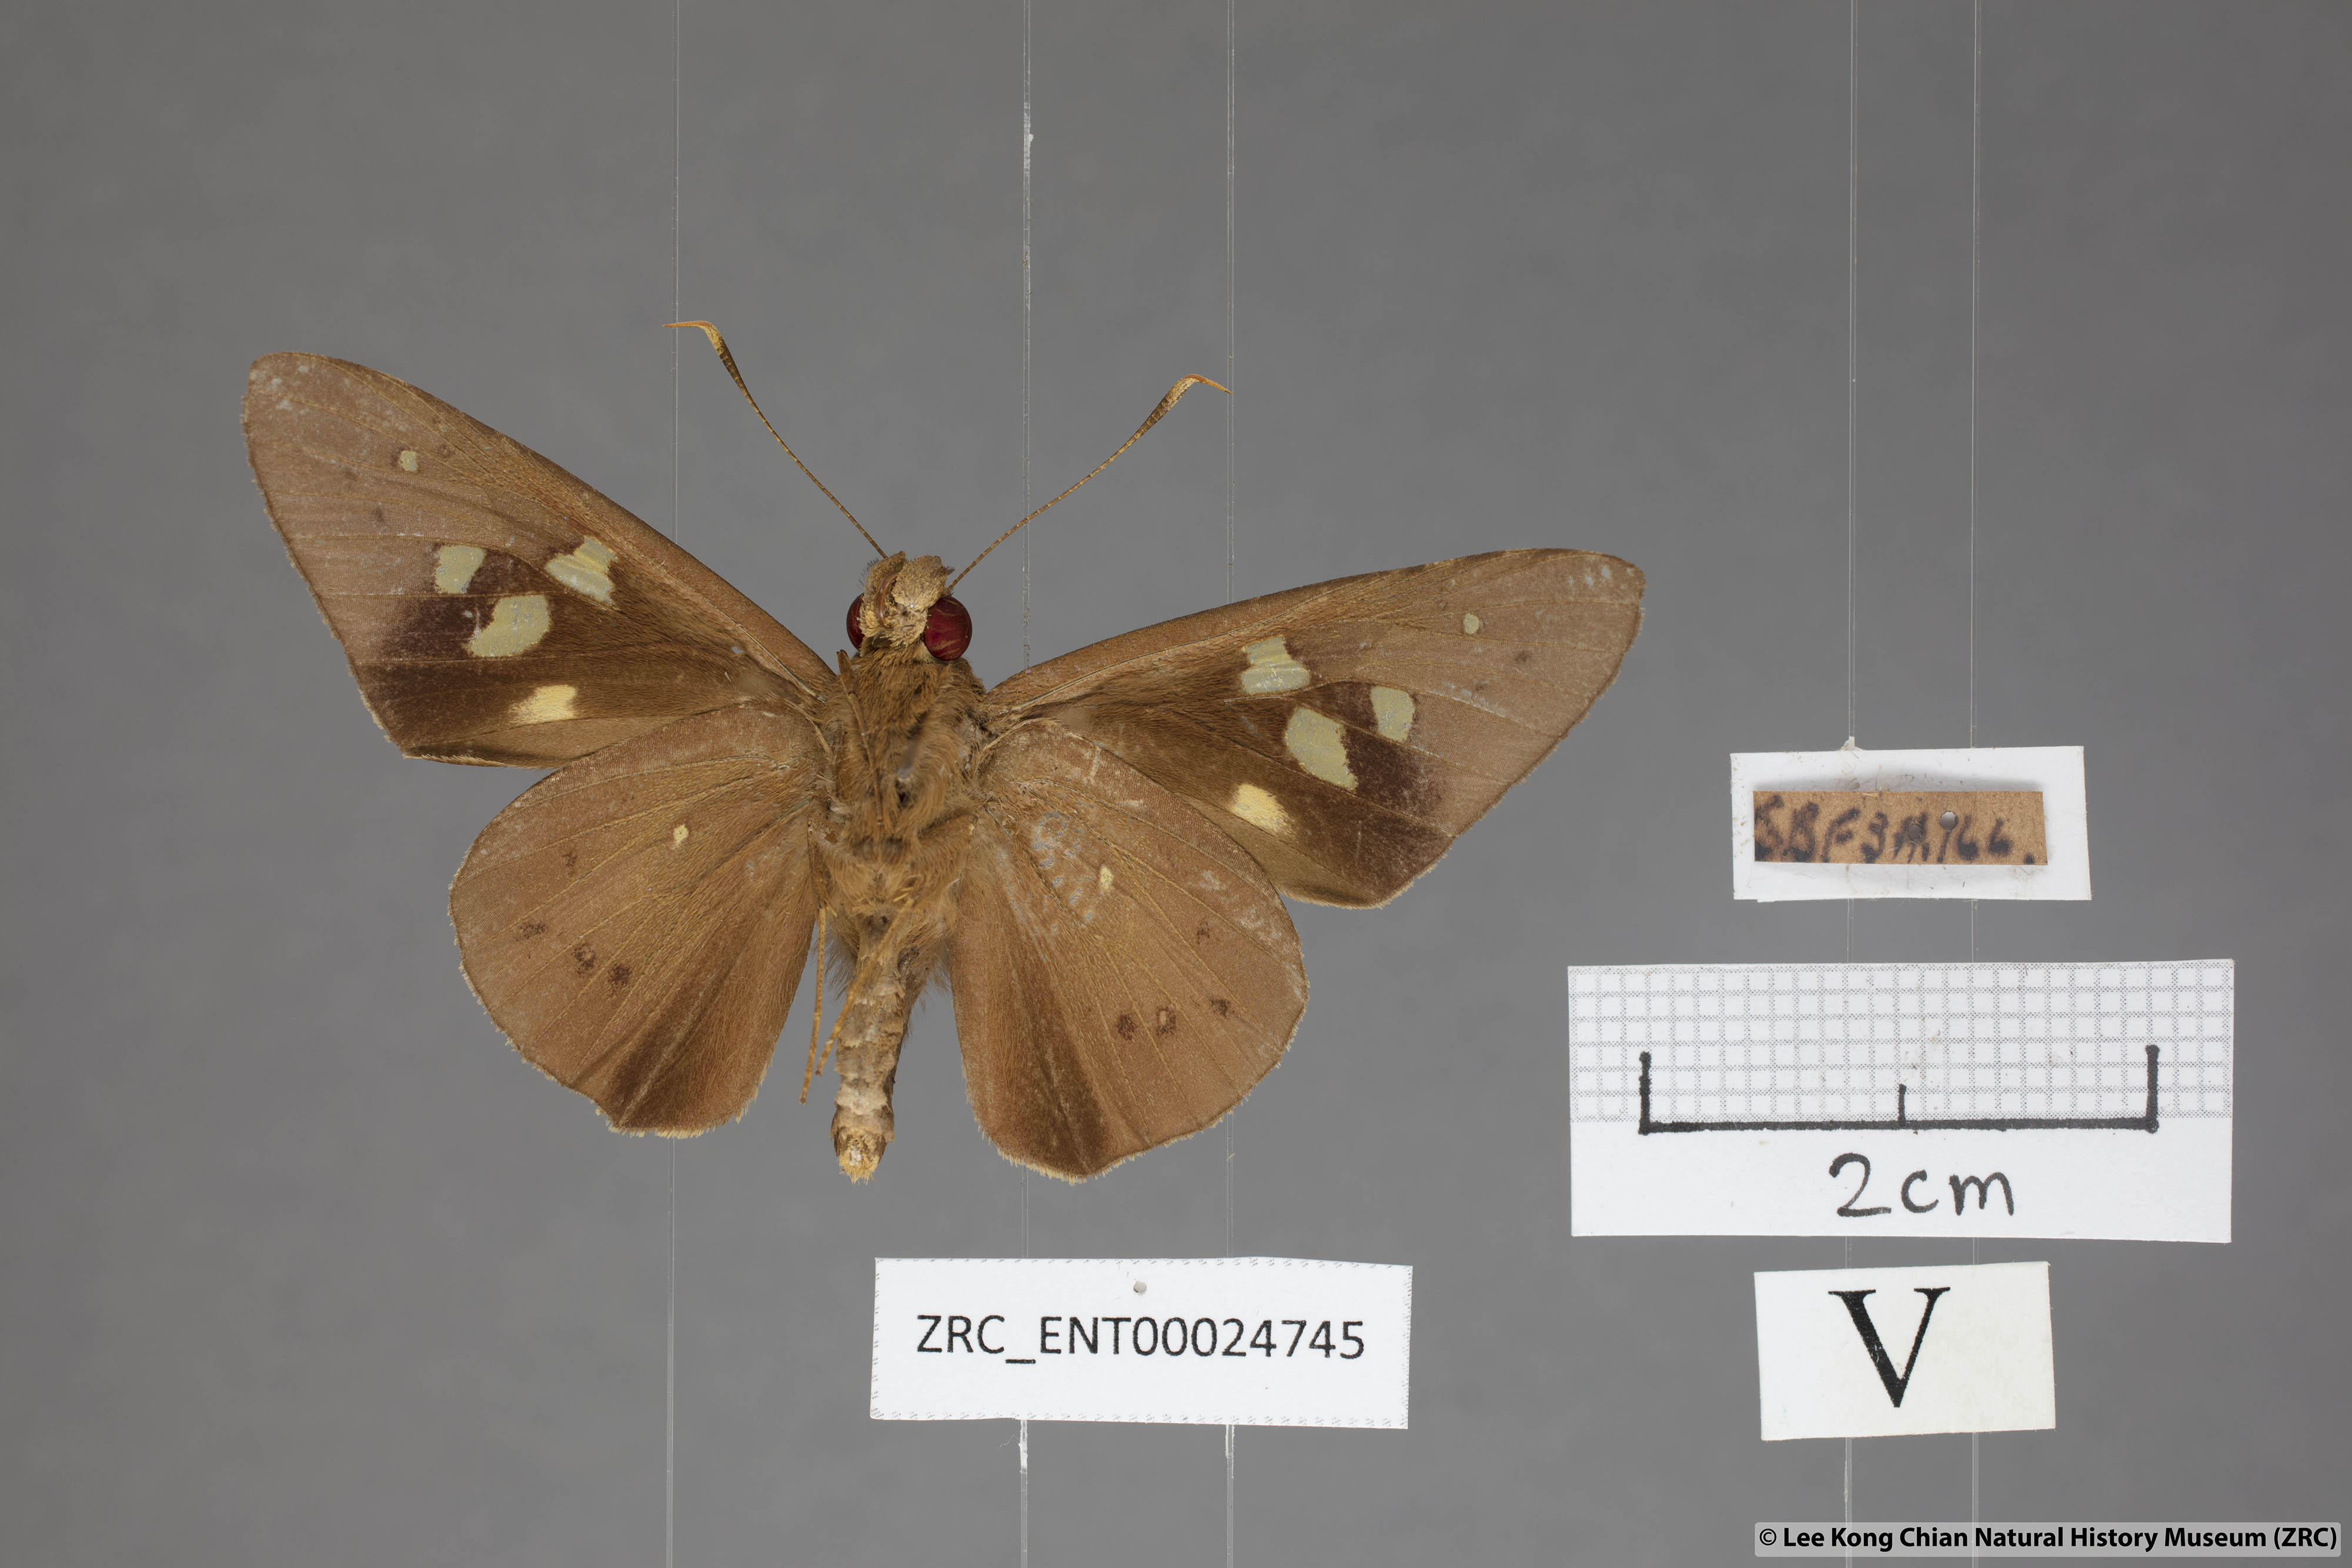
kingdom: Animalia
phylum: Arthropoda
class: Insecta
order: Lepidoptera
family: Hesperiidae
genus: Hidari
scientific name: Hidari irava
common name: Coconut skipper
